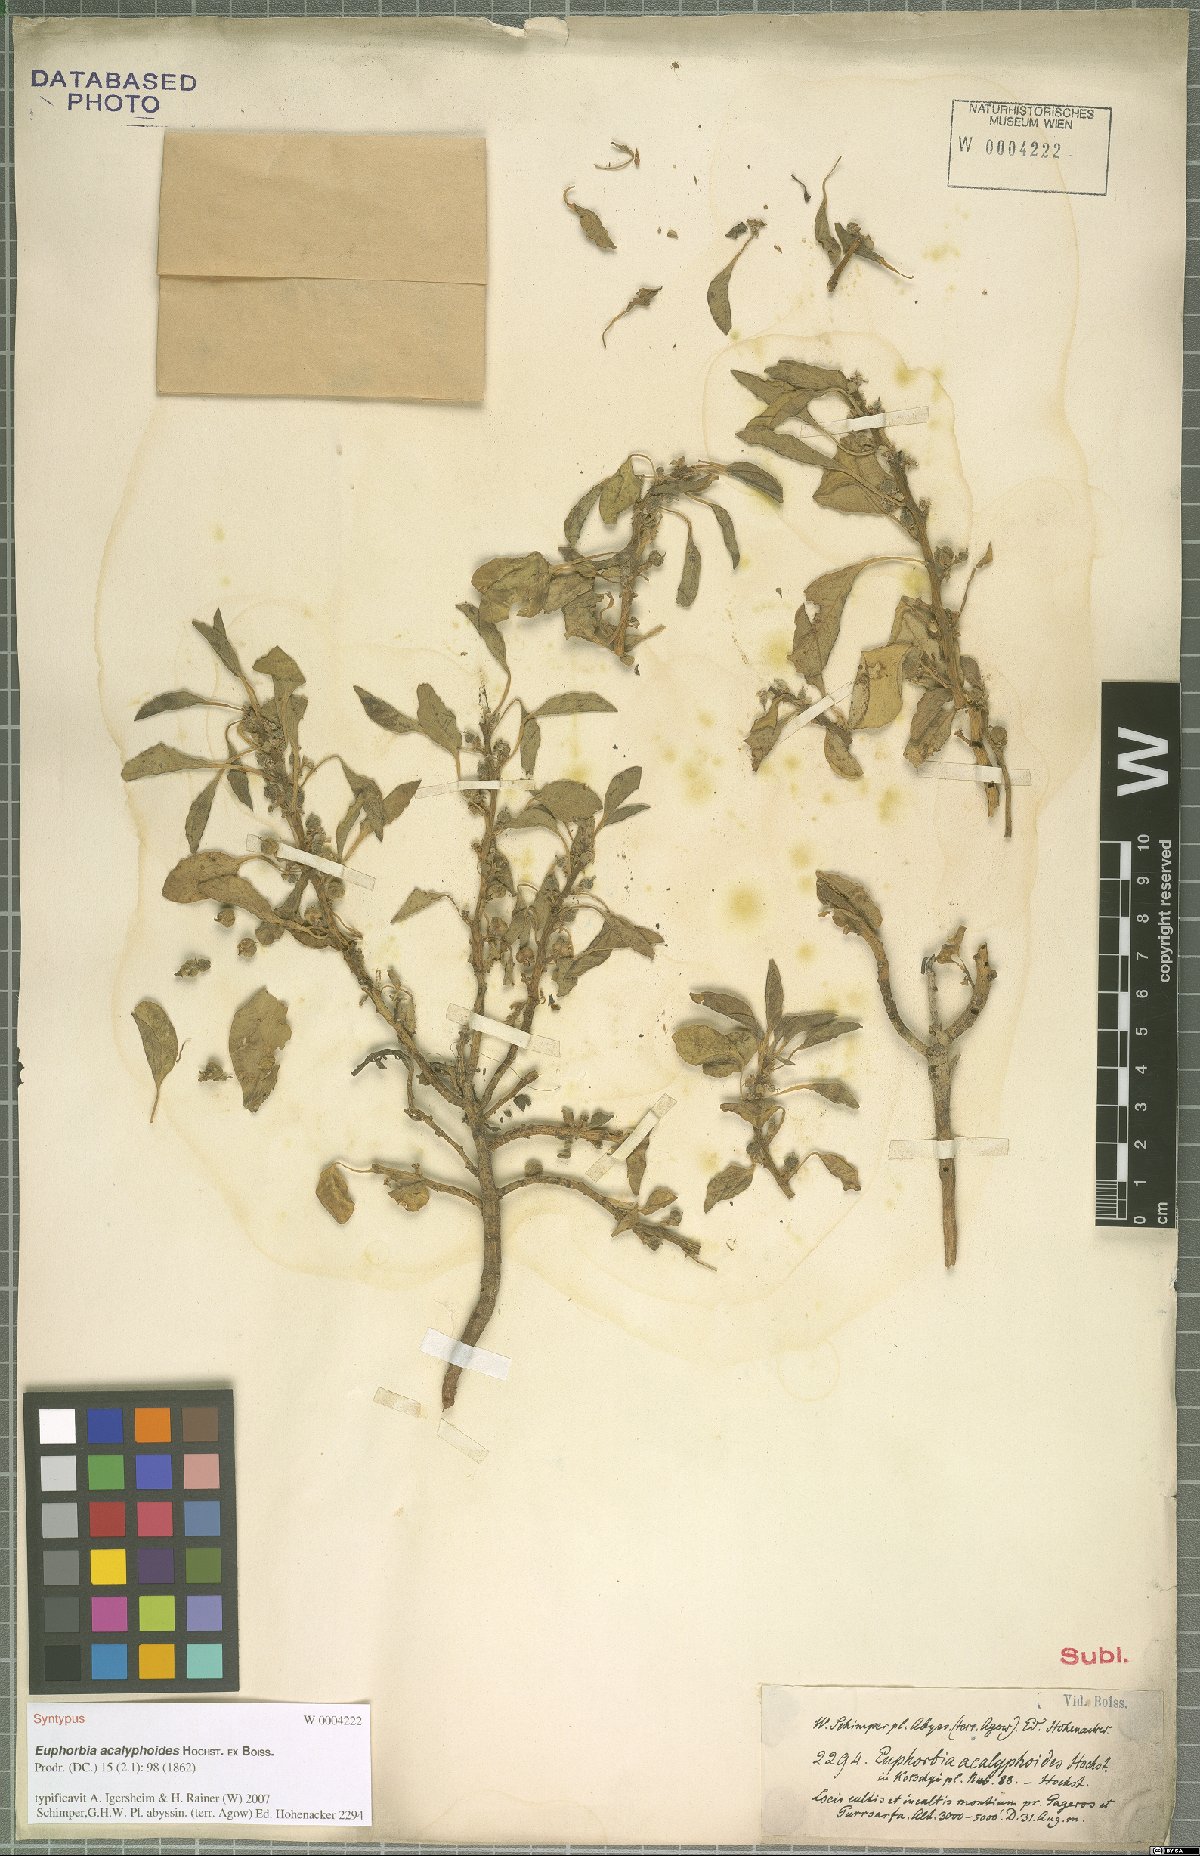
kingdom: Plantae
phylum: Tracheophyta
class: Magnoliopsida
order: Malpighiales
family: Euphorbiaceae
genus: Euphorbia
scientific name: Euphorbia acalyphoides
